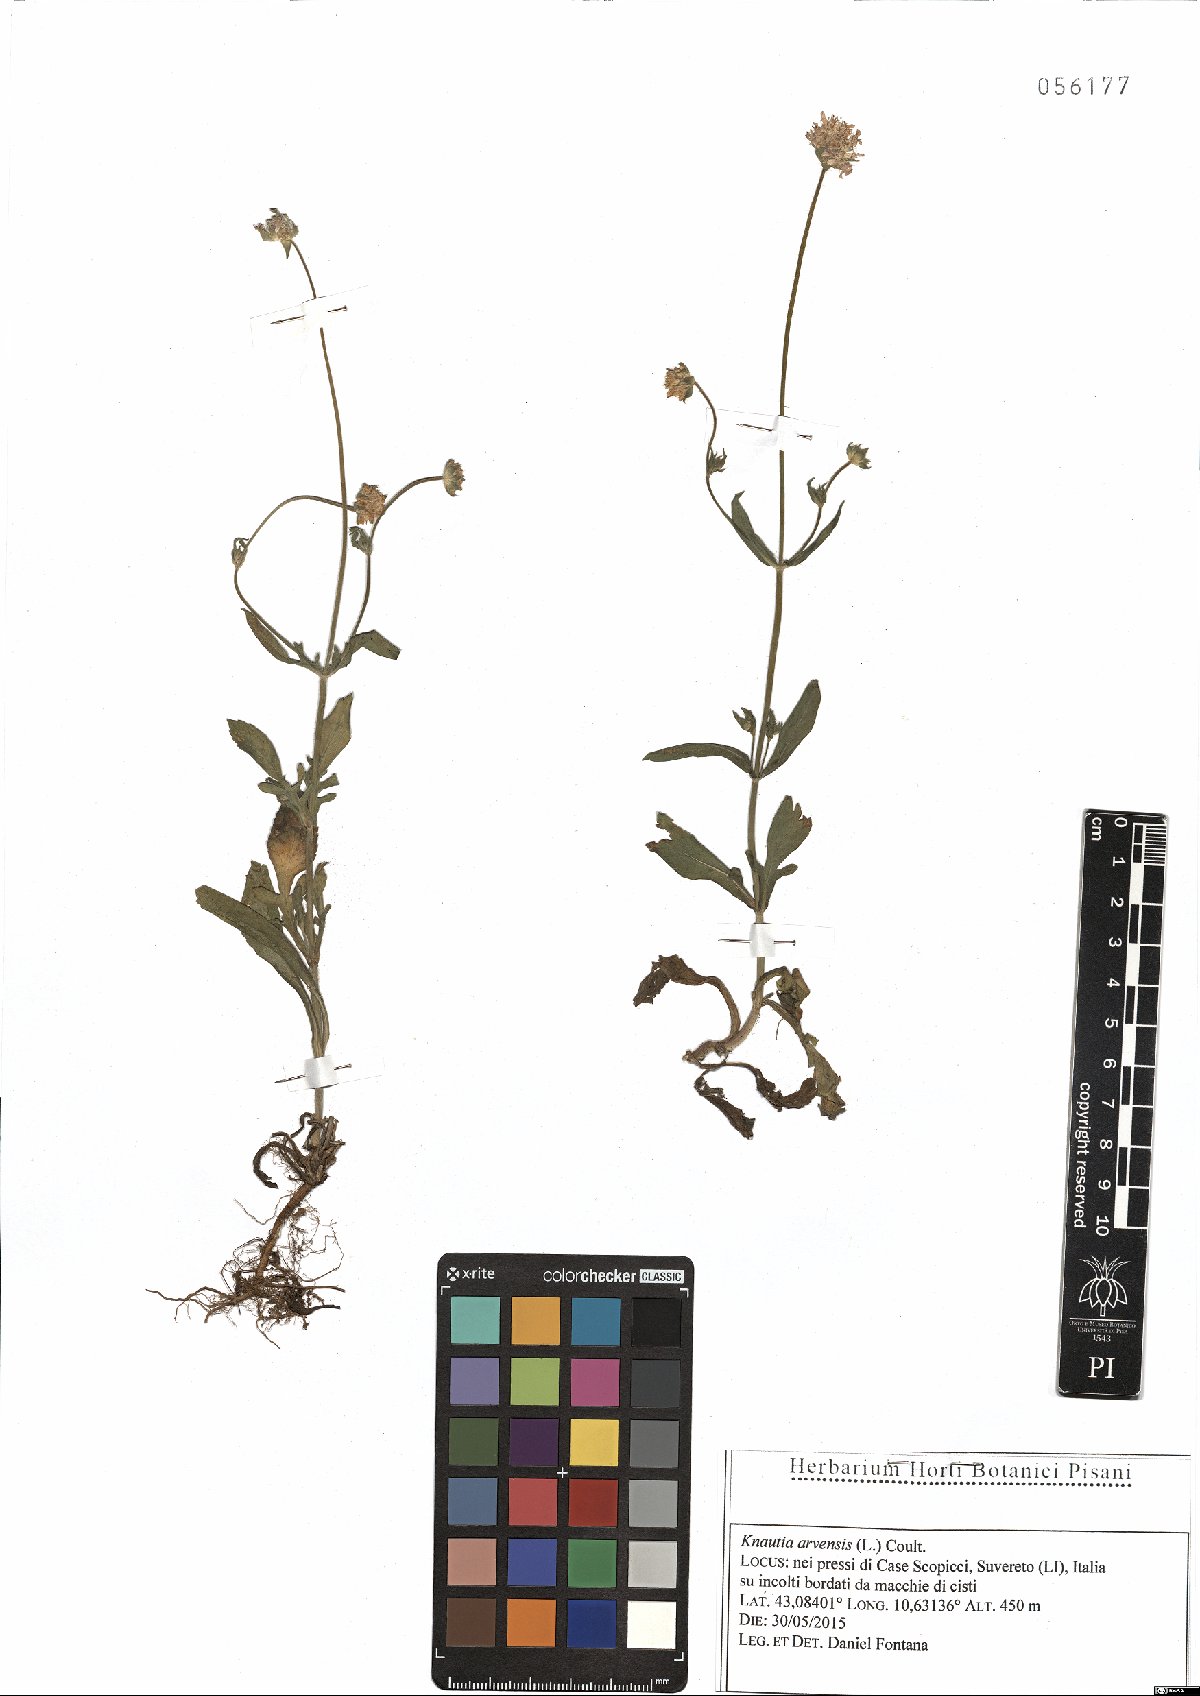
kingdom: Plantae
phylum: Tracheophyta
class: Magnoliopsida
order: Dipsacales
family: Caprifoliaceae
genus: Knautia
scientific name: Knautia arvensis
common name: Field scabiosa
